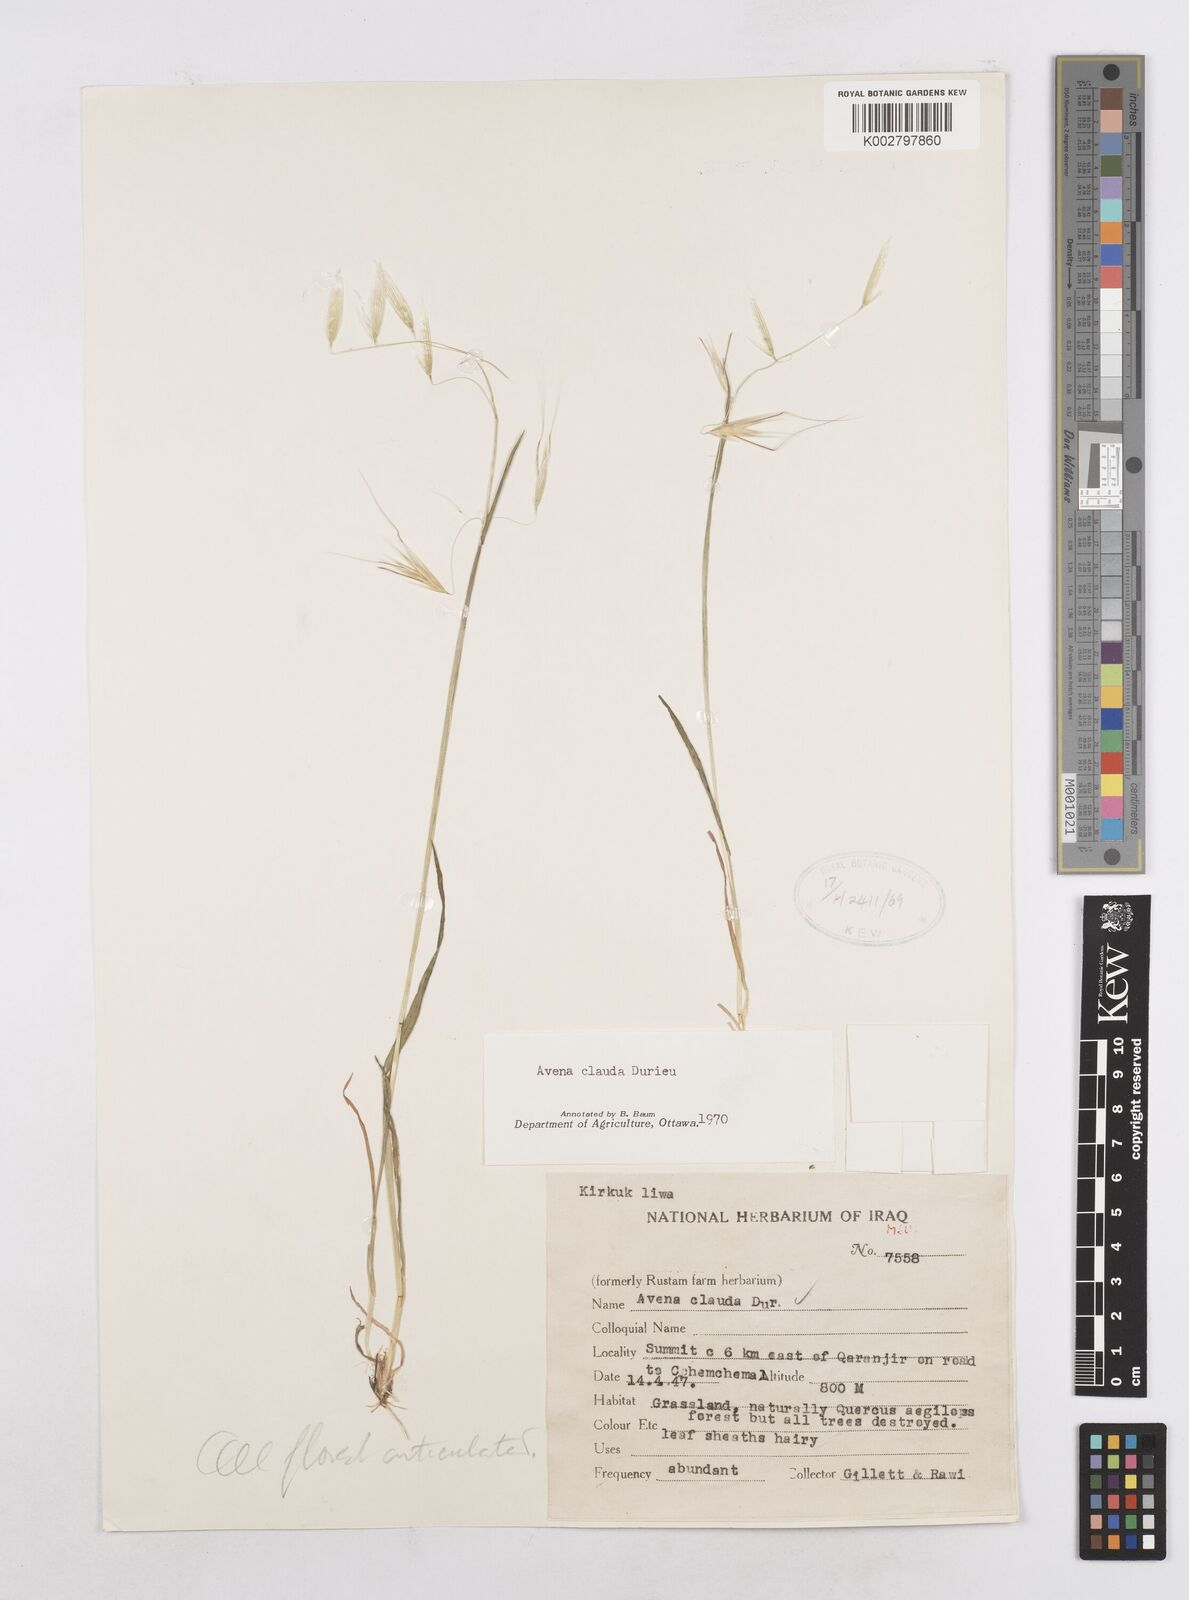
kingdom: Plantae
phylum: Tracheophyta
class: Liliopsida
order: Poales
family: Poaceae
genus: Avena
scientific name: Avena clauda
